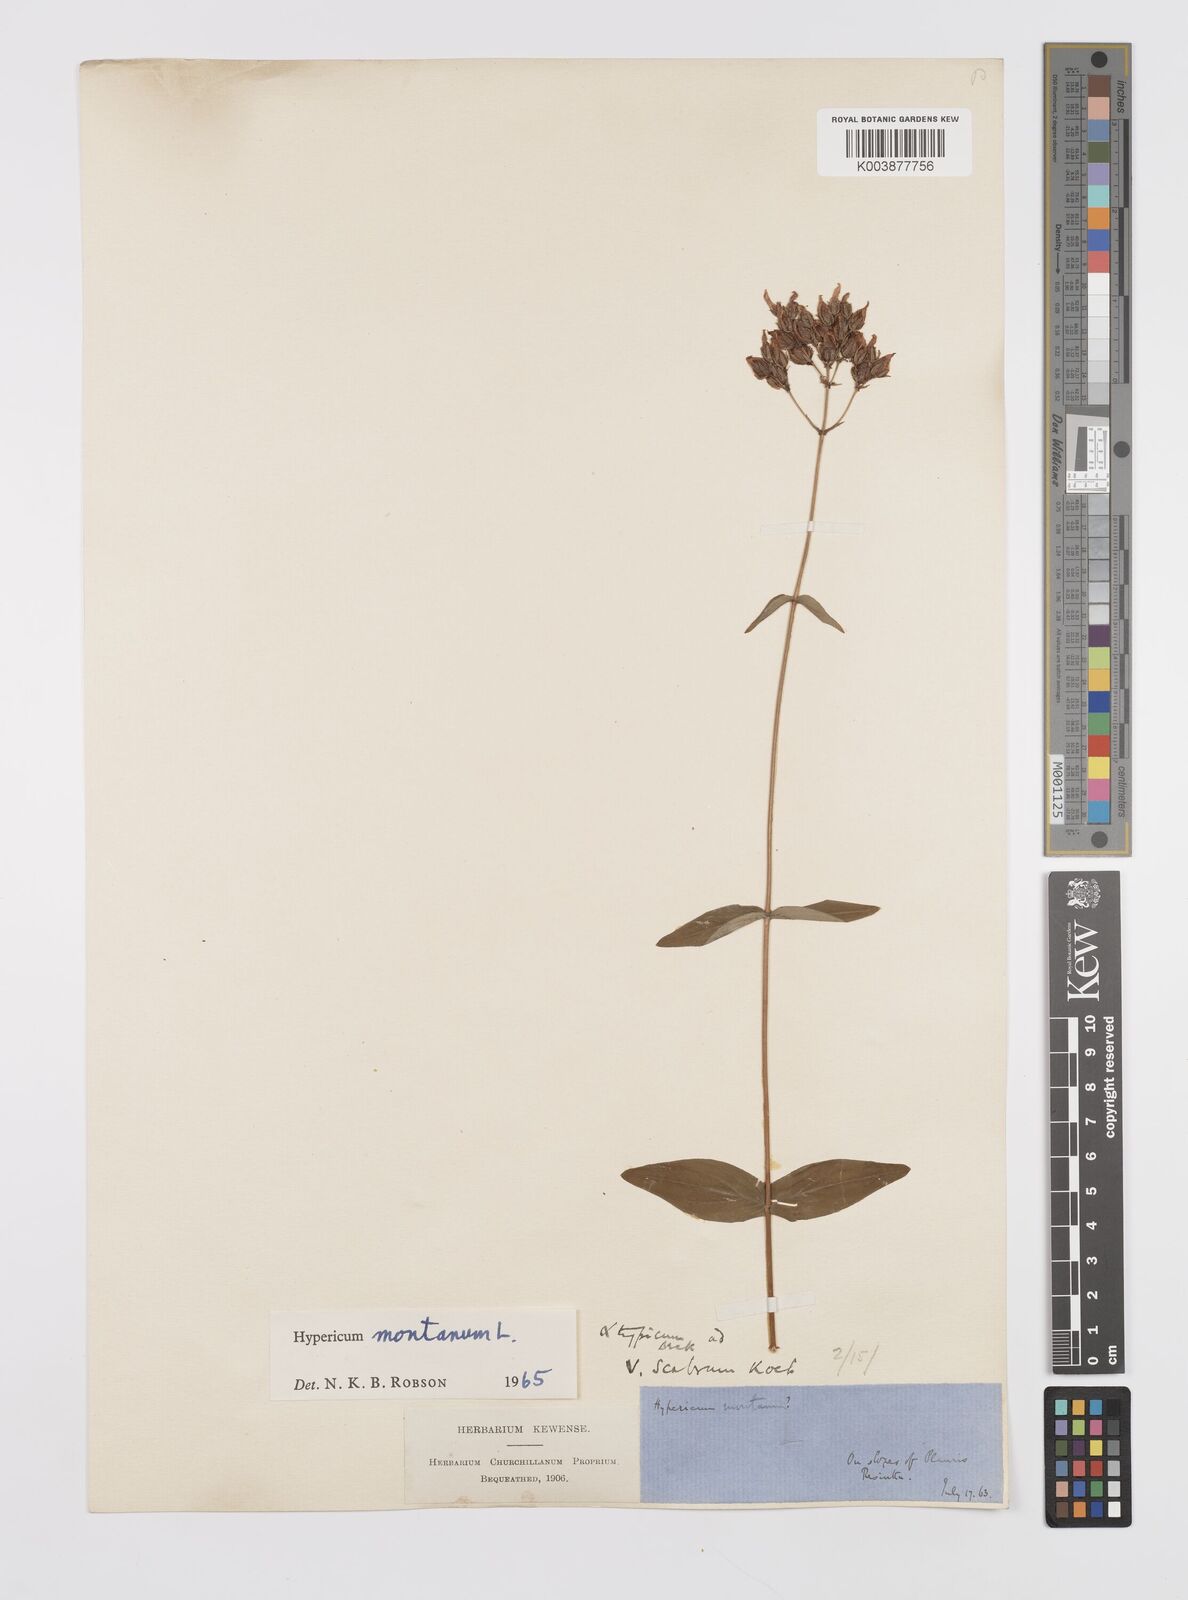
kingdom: Plantae
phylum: Tracheophyta
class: Magnoliopsida
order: Malpighiales
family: Hypericaceae
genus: Hypericum
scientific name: Hypericum montanum
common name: Pale st. john's-wort
